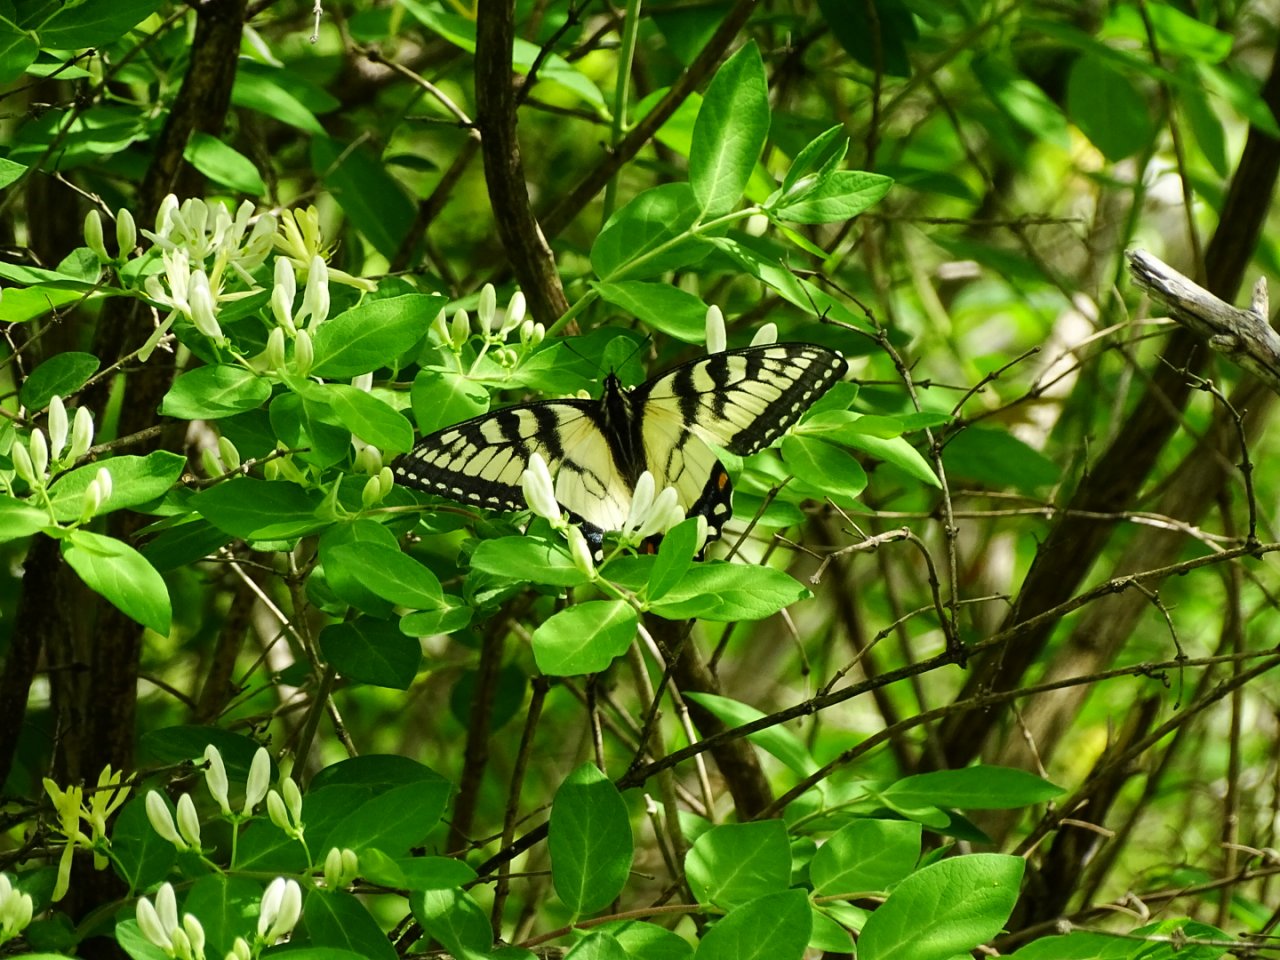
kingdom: Animalia
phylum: Arthropoda
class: Insecta
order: Lepidoptera
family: Papilionidae
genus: Pterourus
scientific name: Pterourus glaucus
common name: Eastern Tiger Swallowtail
